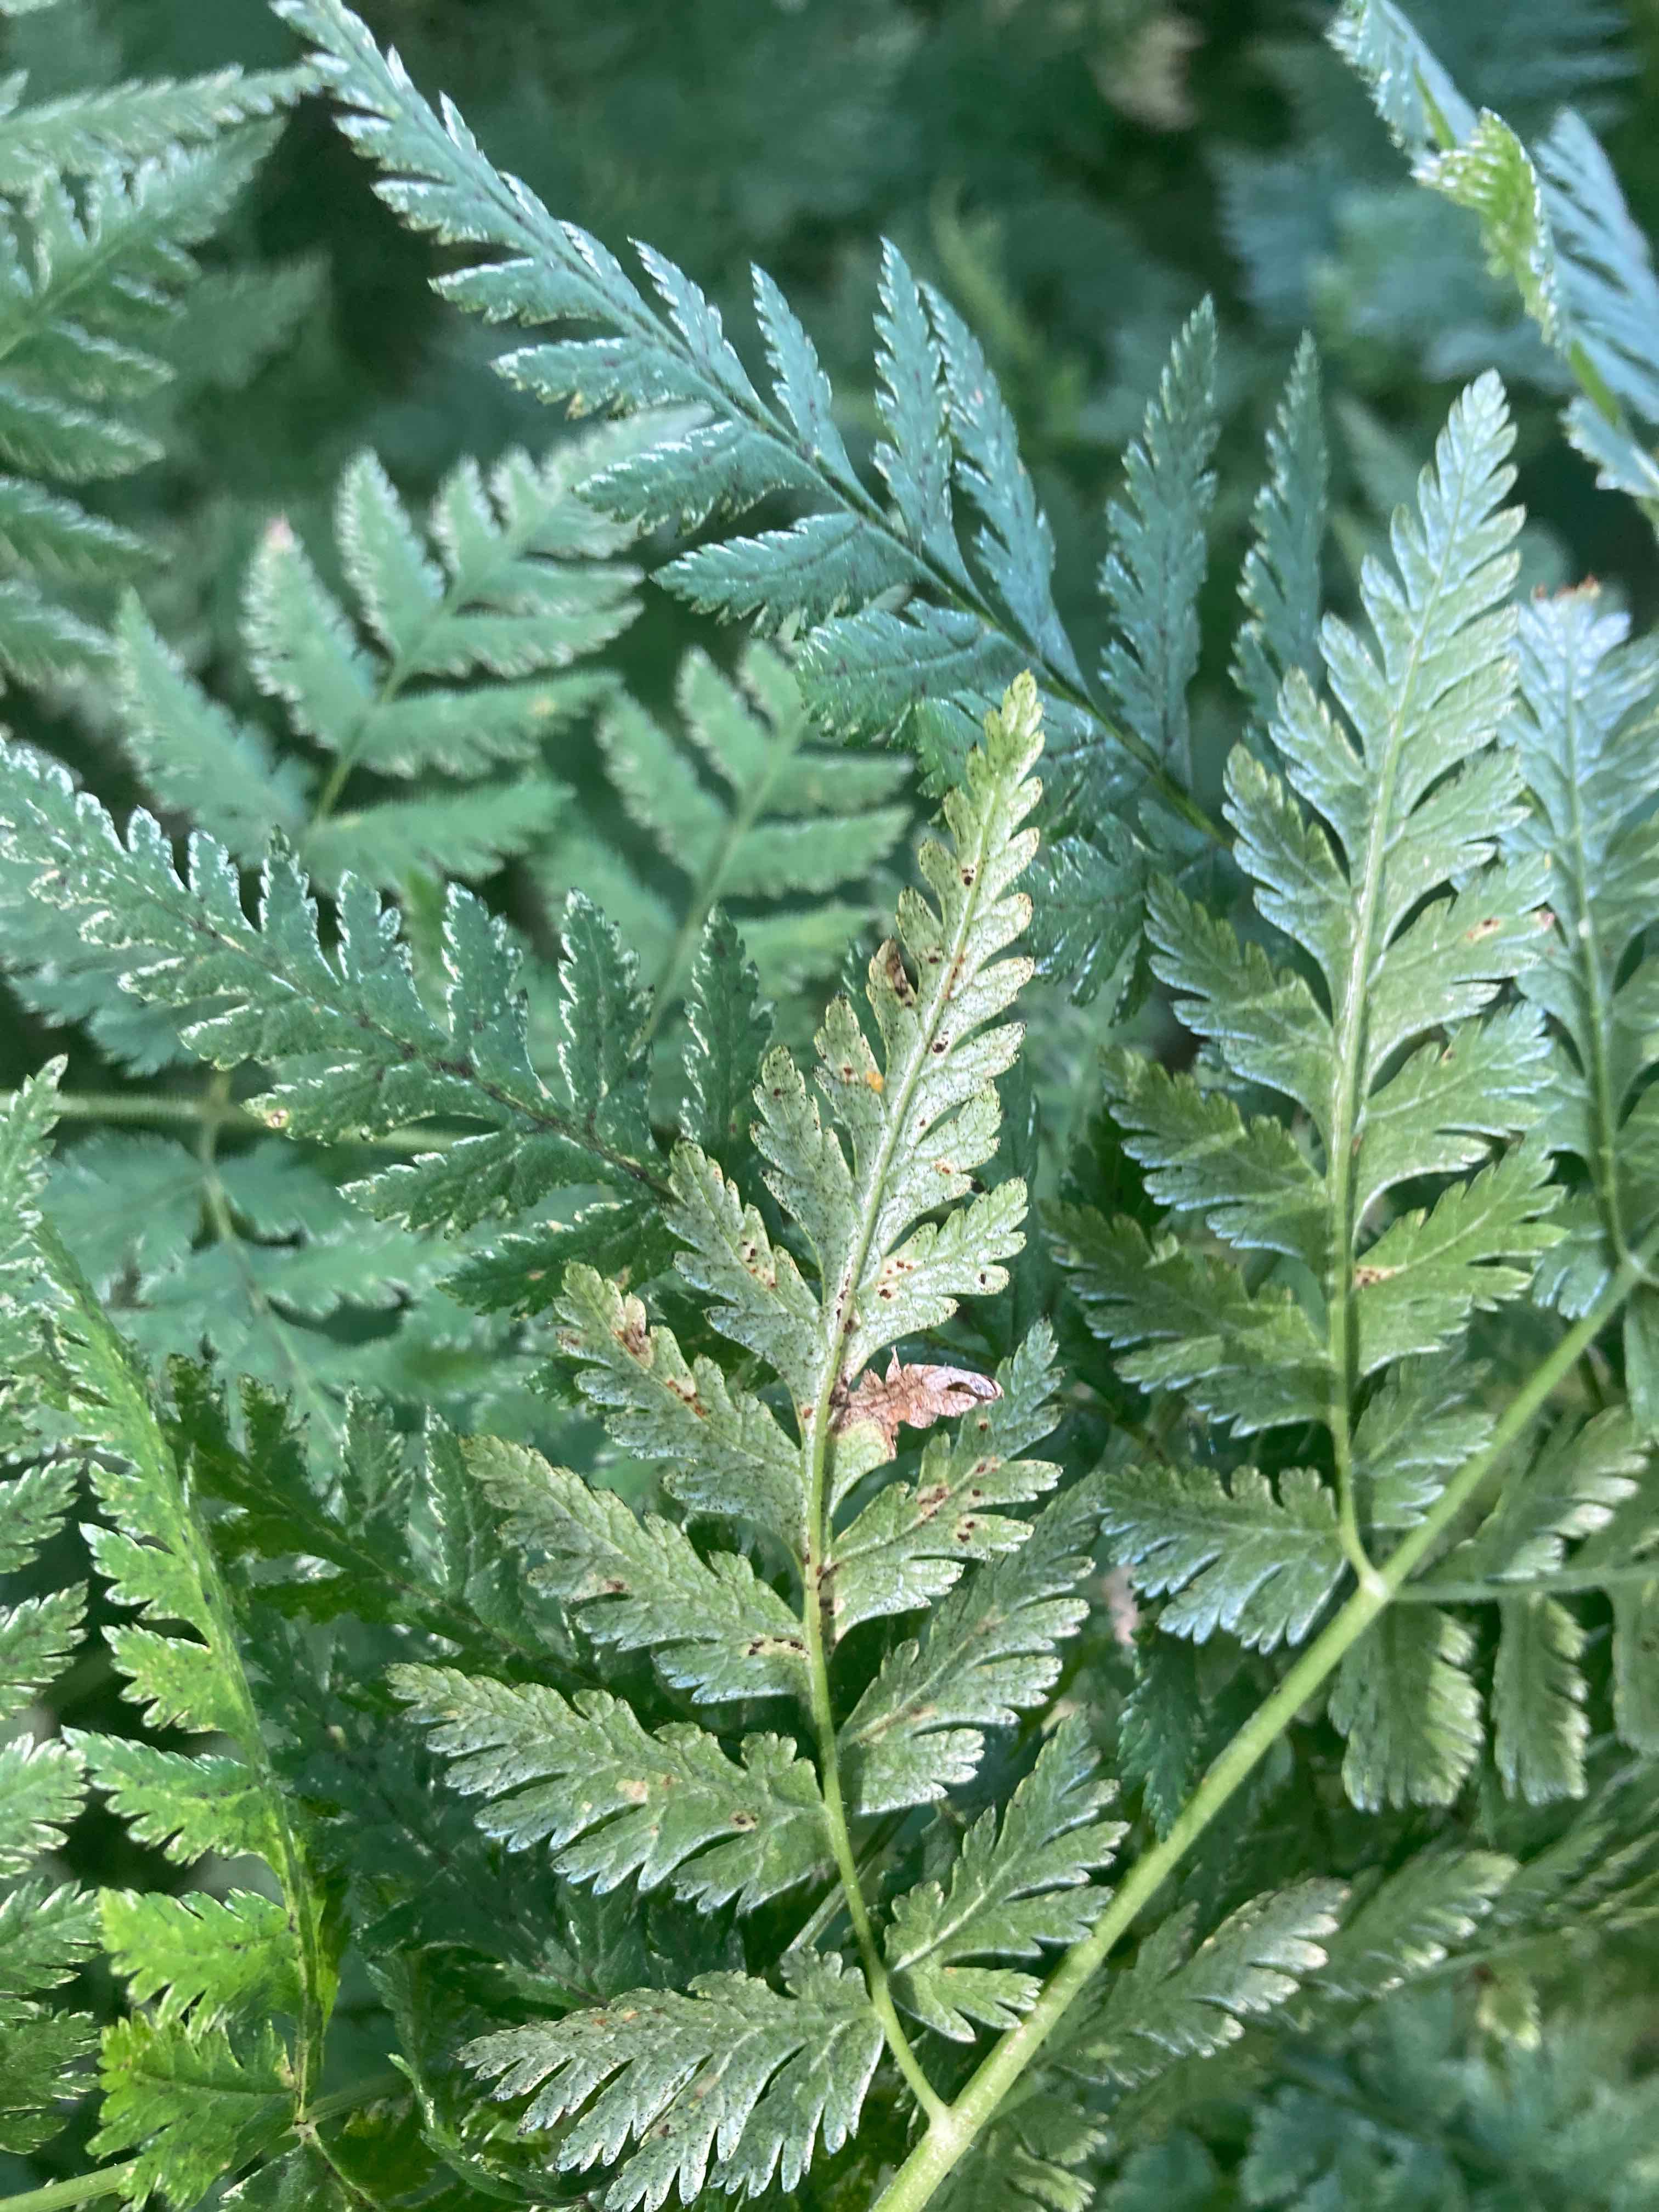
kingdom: Fungi
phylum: Basidiomycota
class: Pucciniomycetes
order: Pucciniales
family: Pucciniaceae
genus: Puccinia
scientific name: Puccinia chaerophylli
